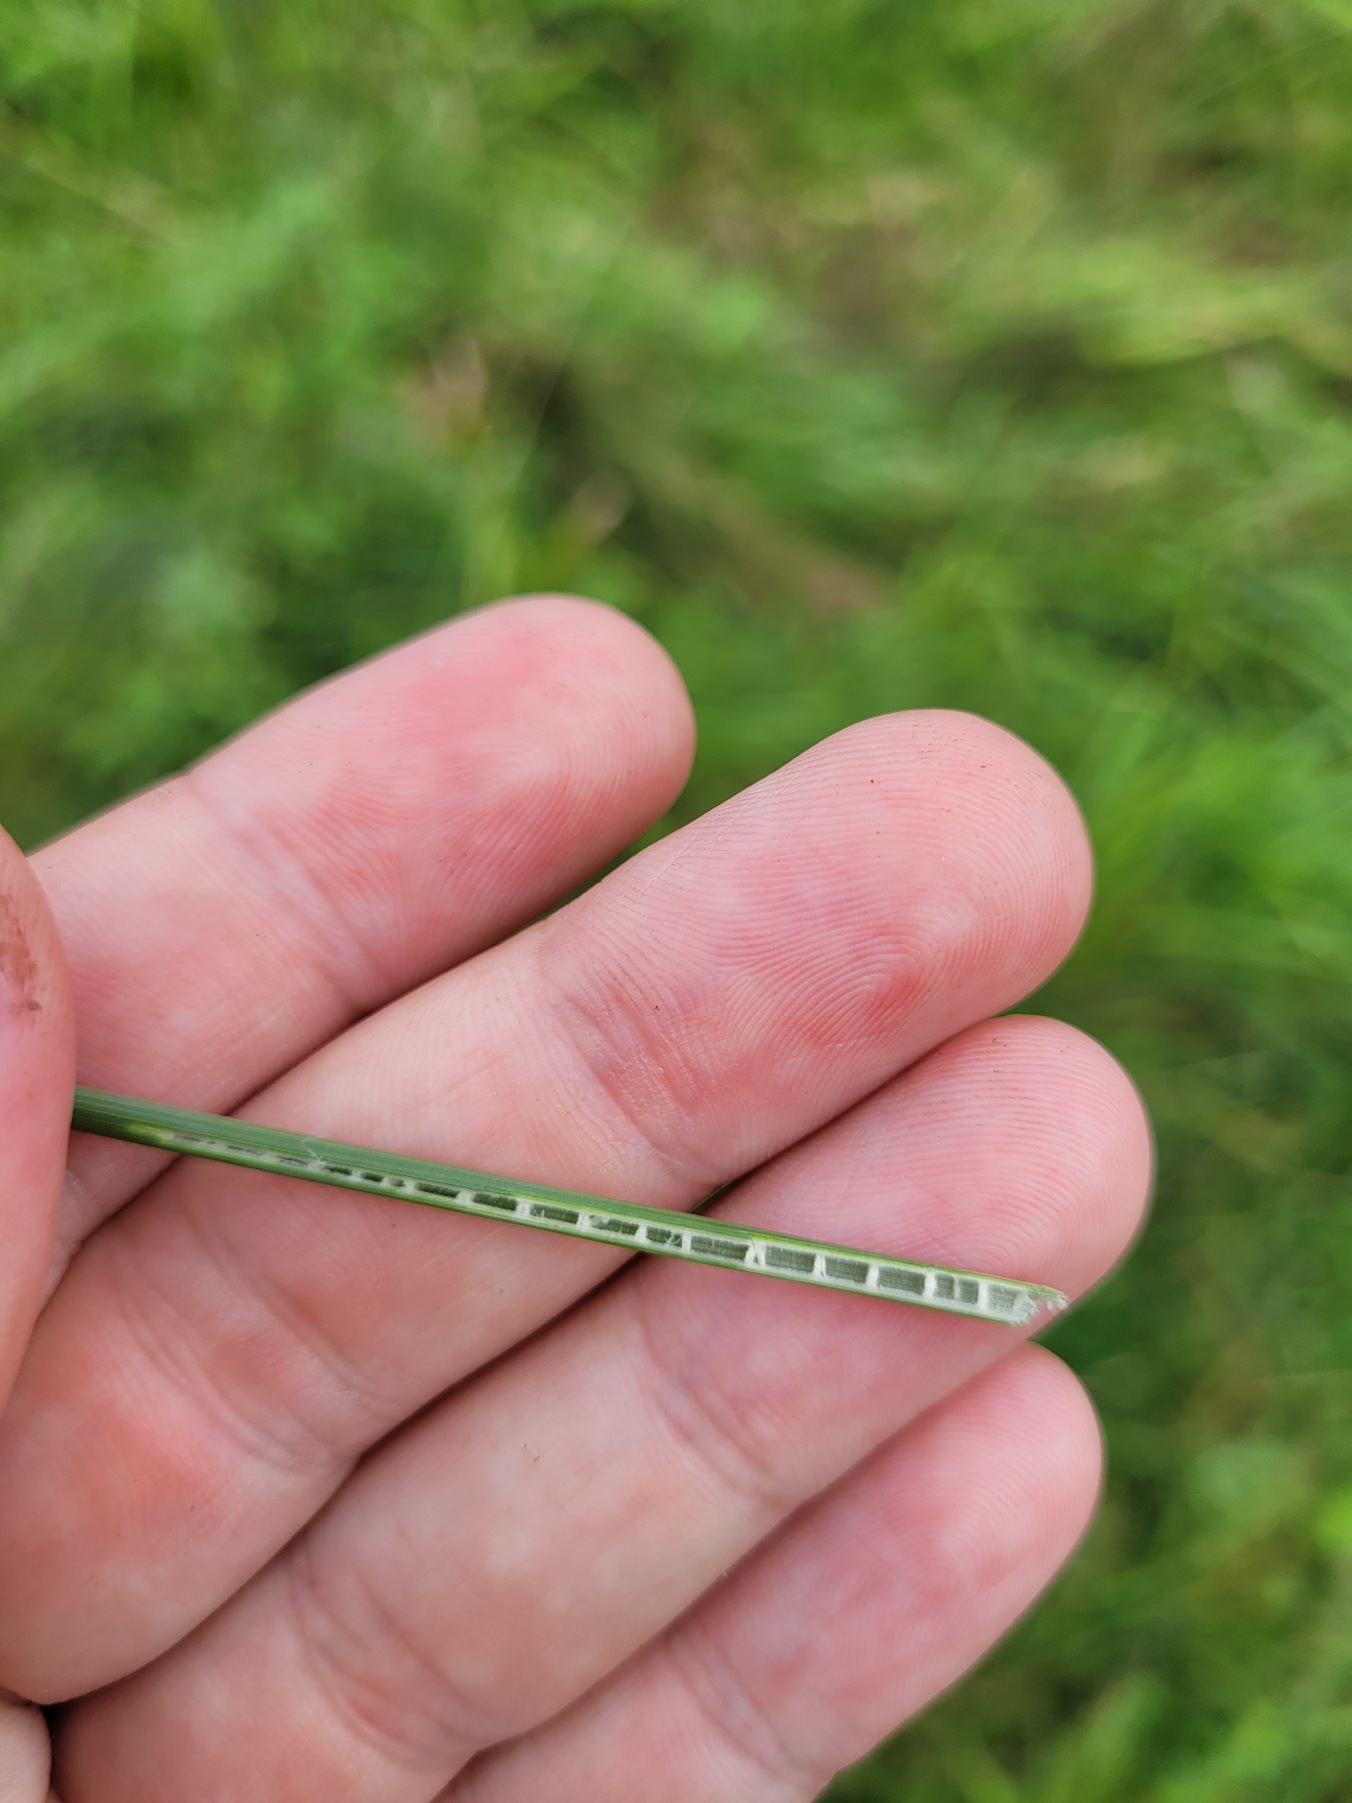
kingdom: Plantae
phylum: Tracheophyta
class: Liliopsida
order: Poales
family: Juncaceae
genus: Juncus
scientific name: Juncus inflexus
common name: Blågrå siv
